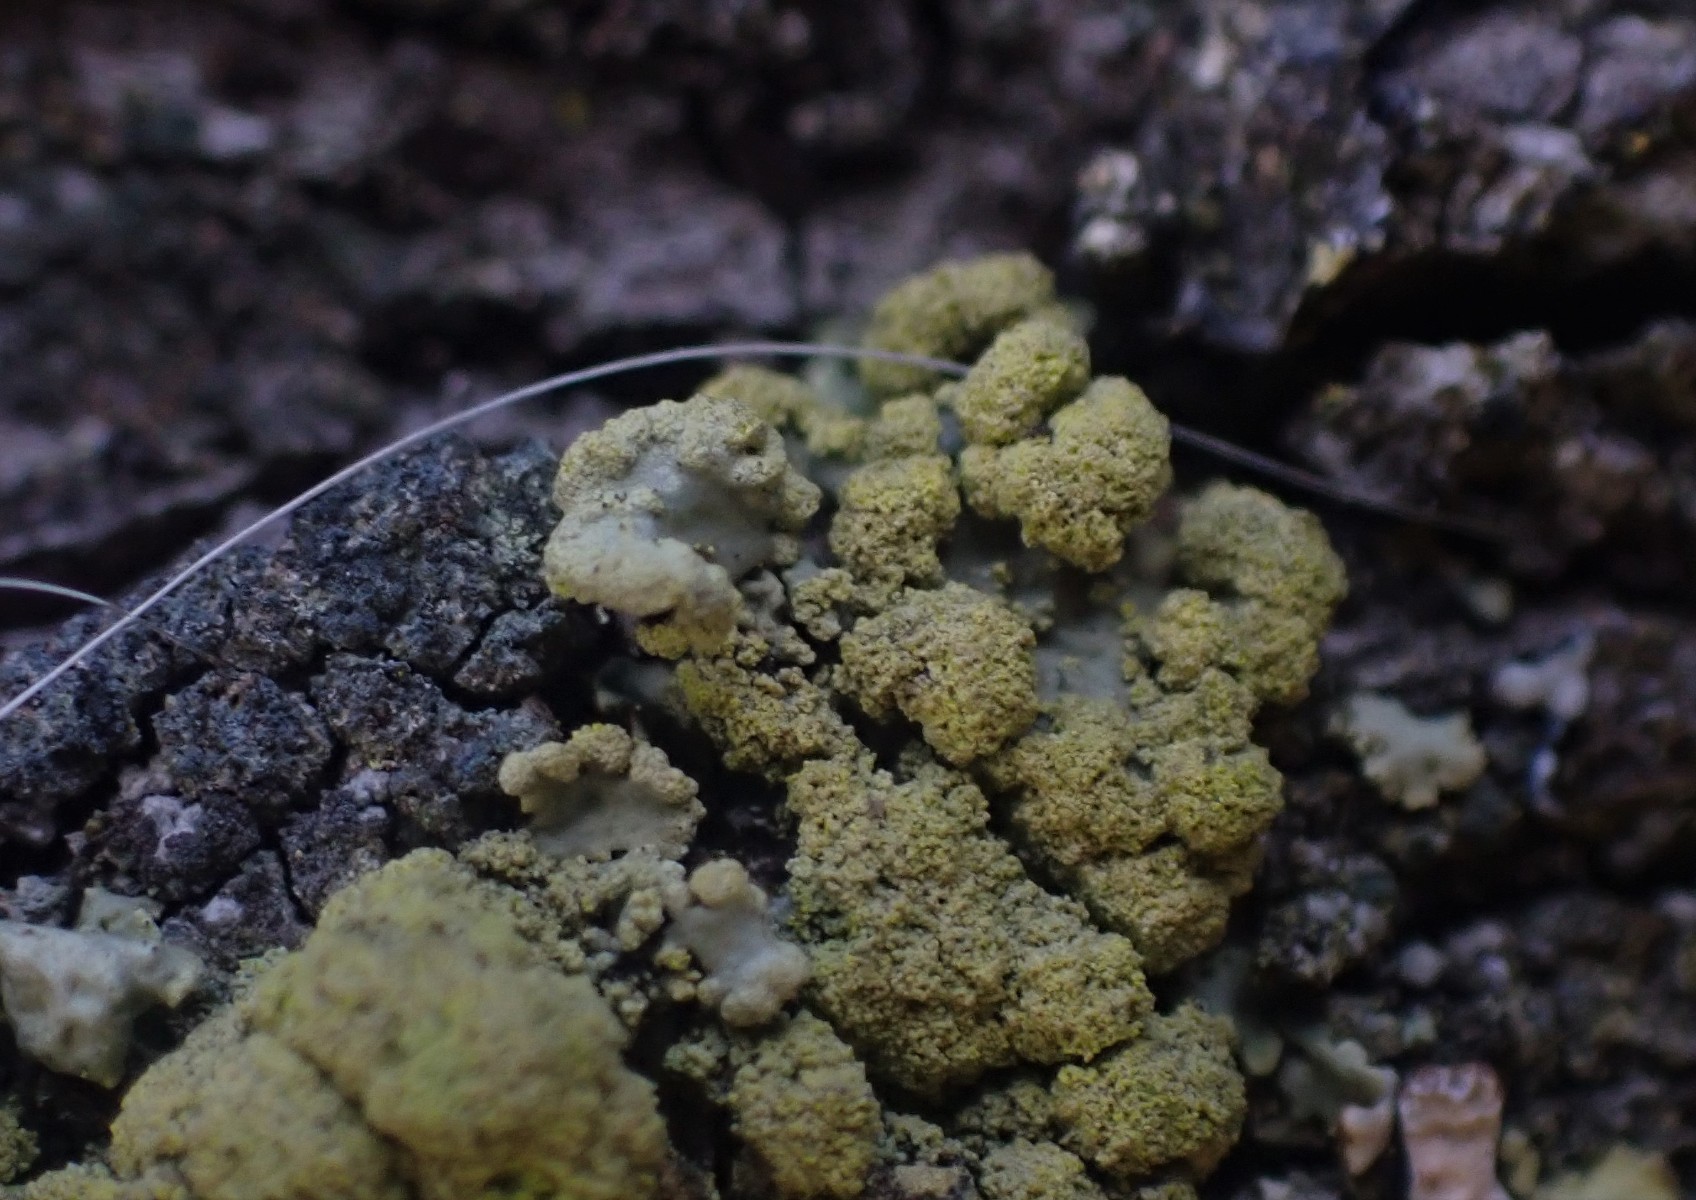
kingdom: Fungi
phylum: Ascomycota
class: Lecanoromycetes
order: Lecanorales
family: Parmeliaceae
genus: Vulpicida
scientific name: Vulpicida pinastri
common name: gul kruslav
